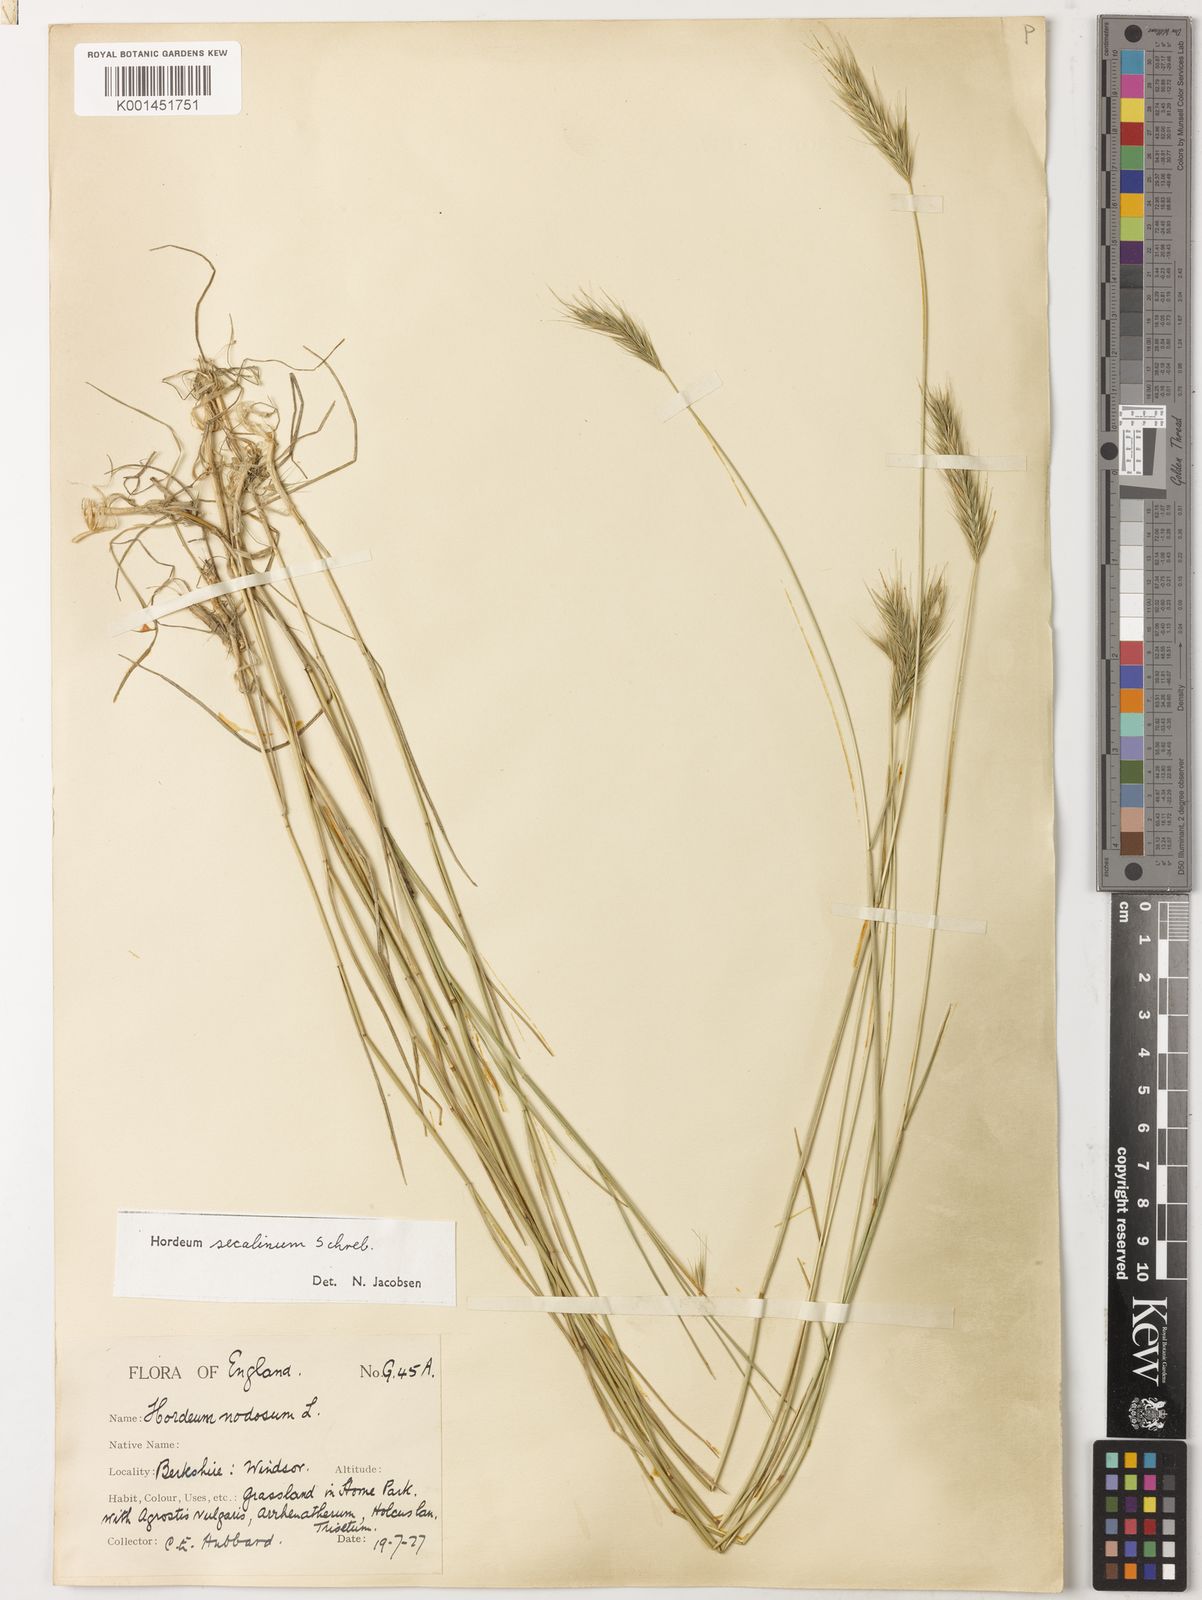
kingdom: Plantae
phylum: Tracheophyta
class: Liliopsida
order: Poales
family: Poaceae
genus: Hordeum
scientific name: Hordeum secalinum
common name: Meadow barley
